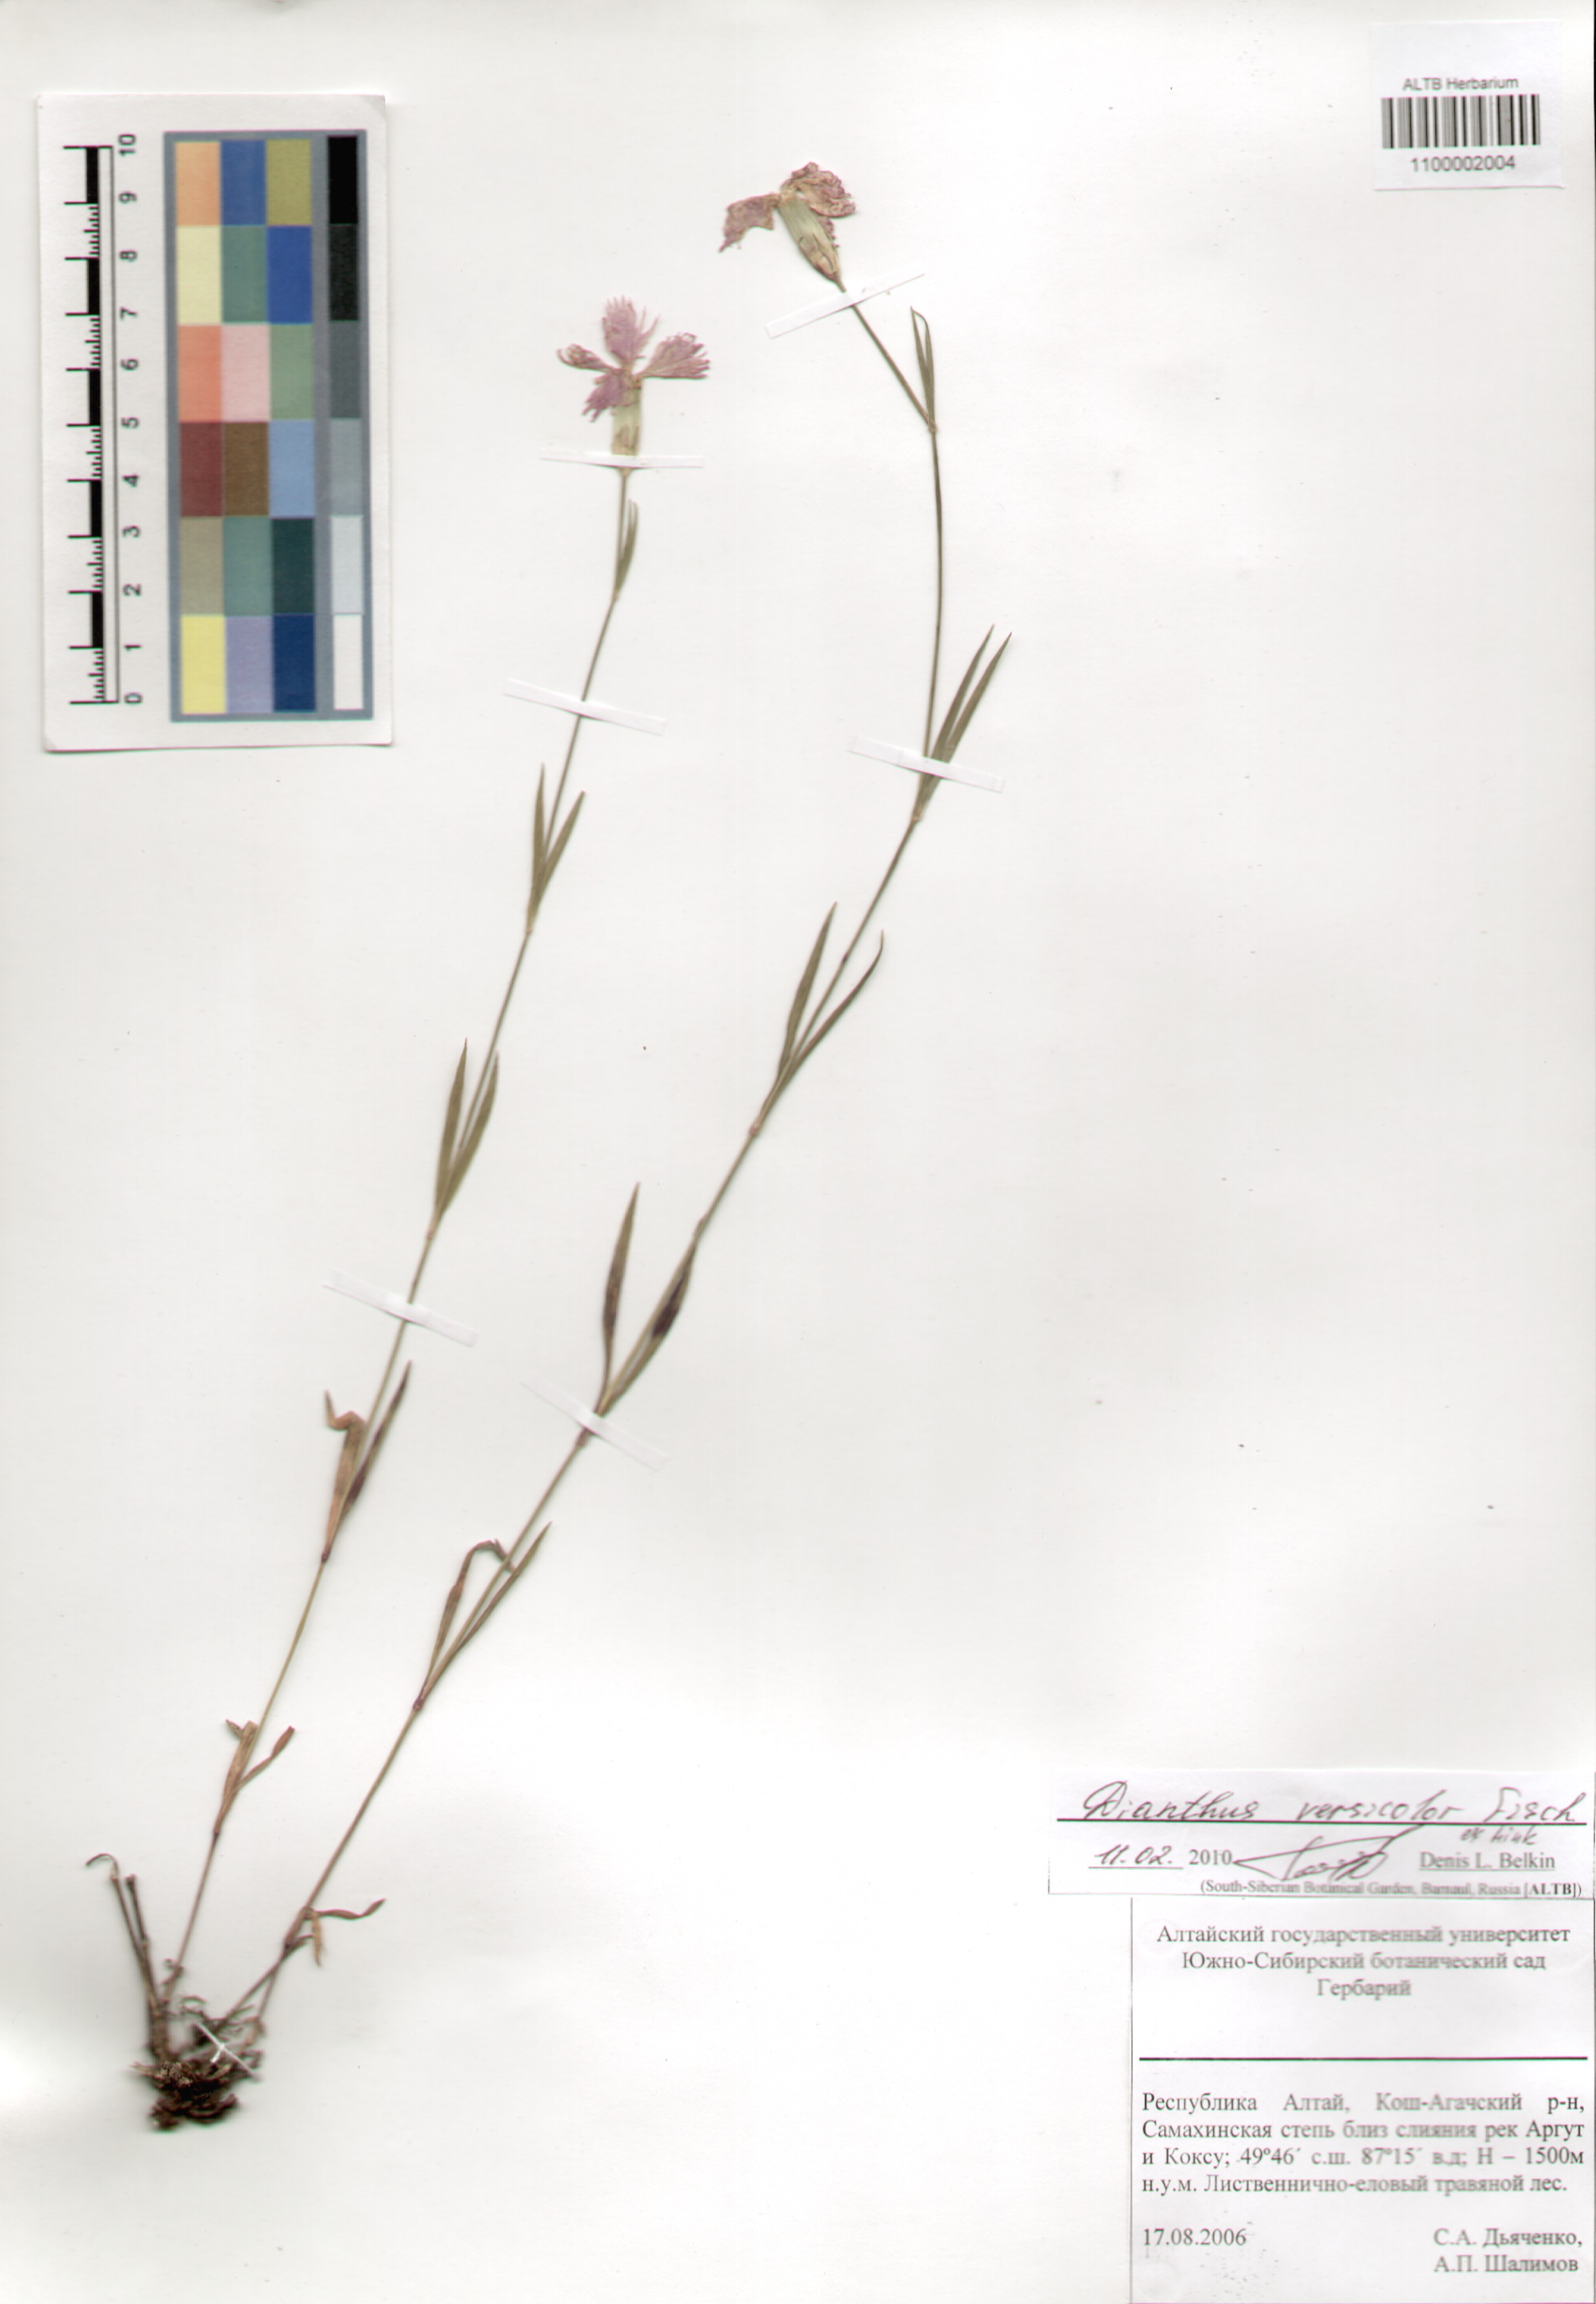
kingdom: Plantae
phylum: Tracheophyta
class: Magnoliopsida
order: Caryophyllales
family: Caryophyllaceae
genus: Dianthus
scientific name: Dianthus chinensis
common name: Rainbow pink
